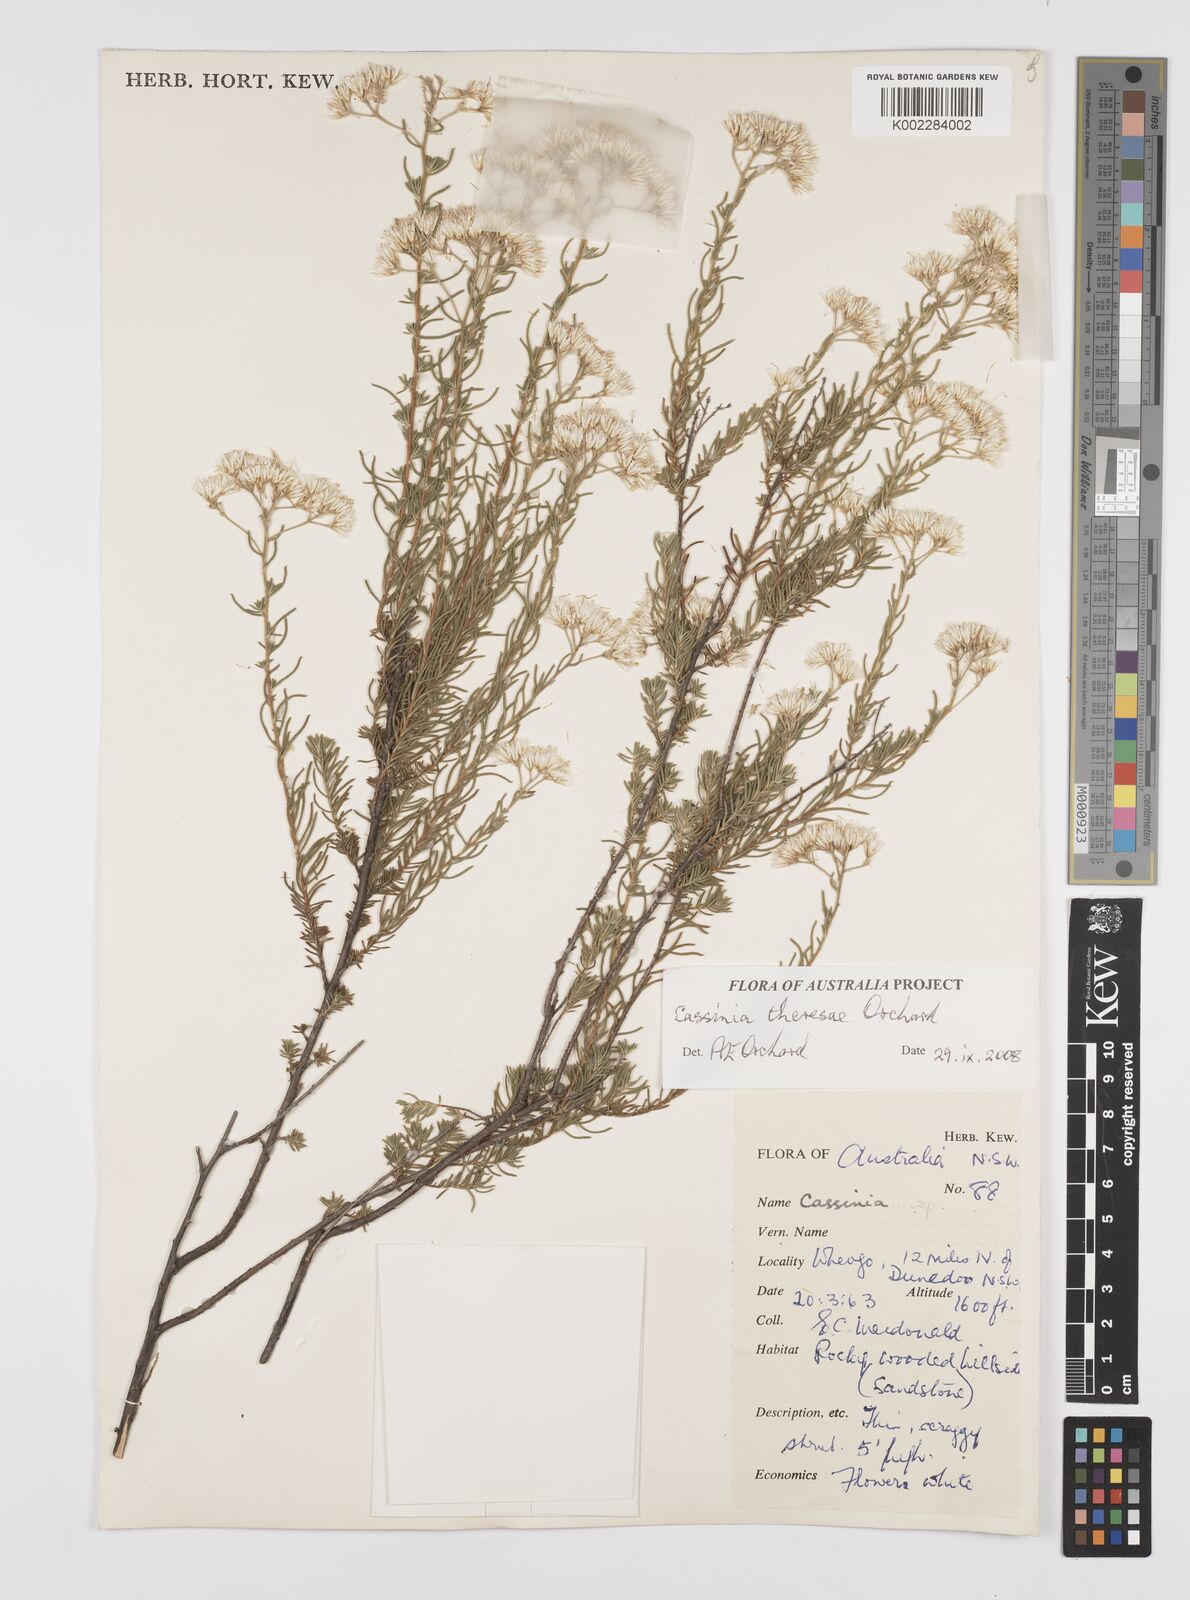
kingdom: Plantae
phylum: Tracheophyta
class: Magnoliopsida
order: Asterales
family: Asteraceae
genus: Cassinia
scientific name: Cassinia theresae
